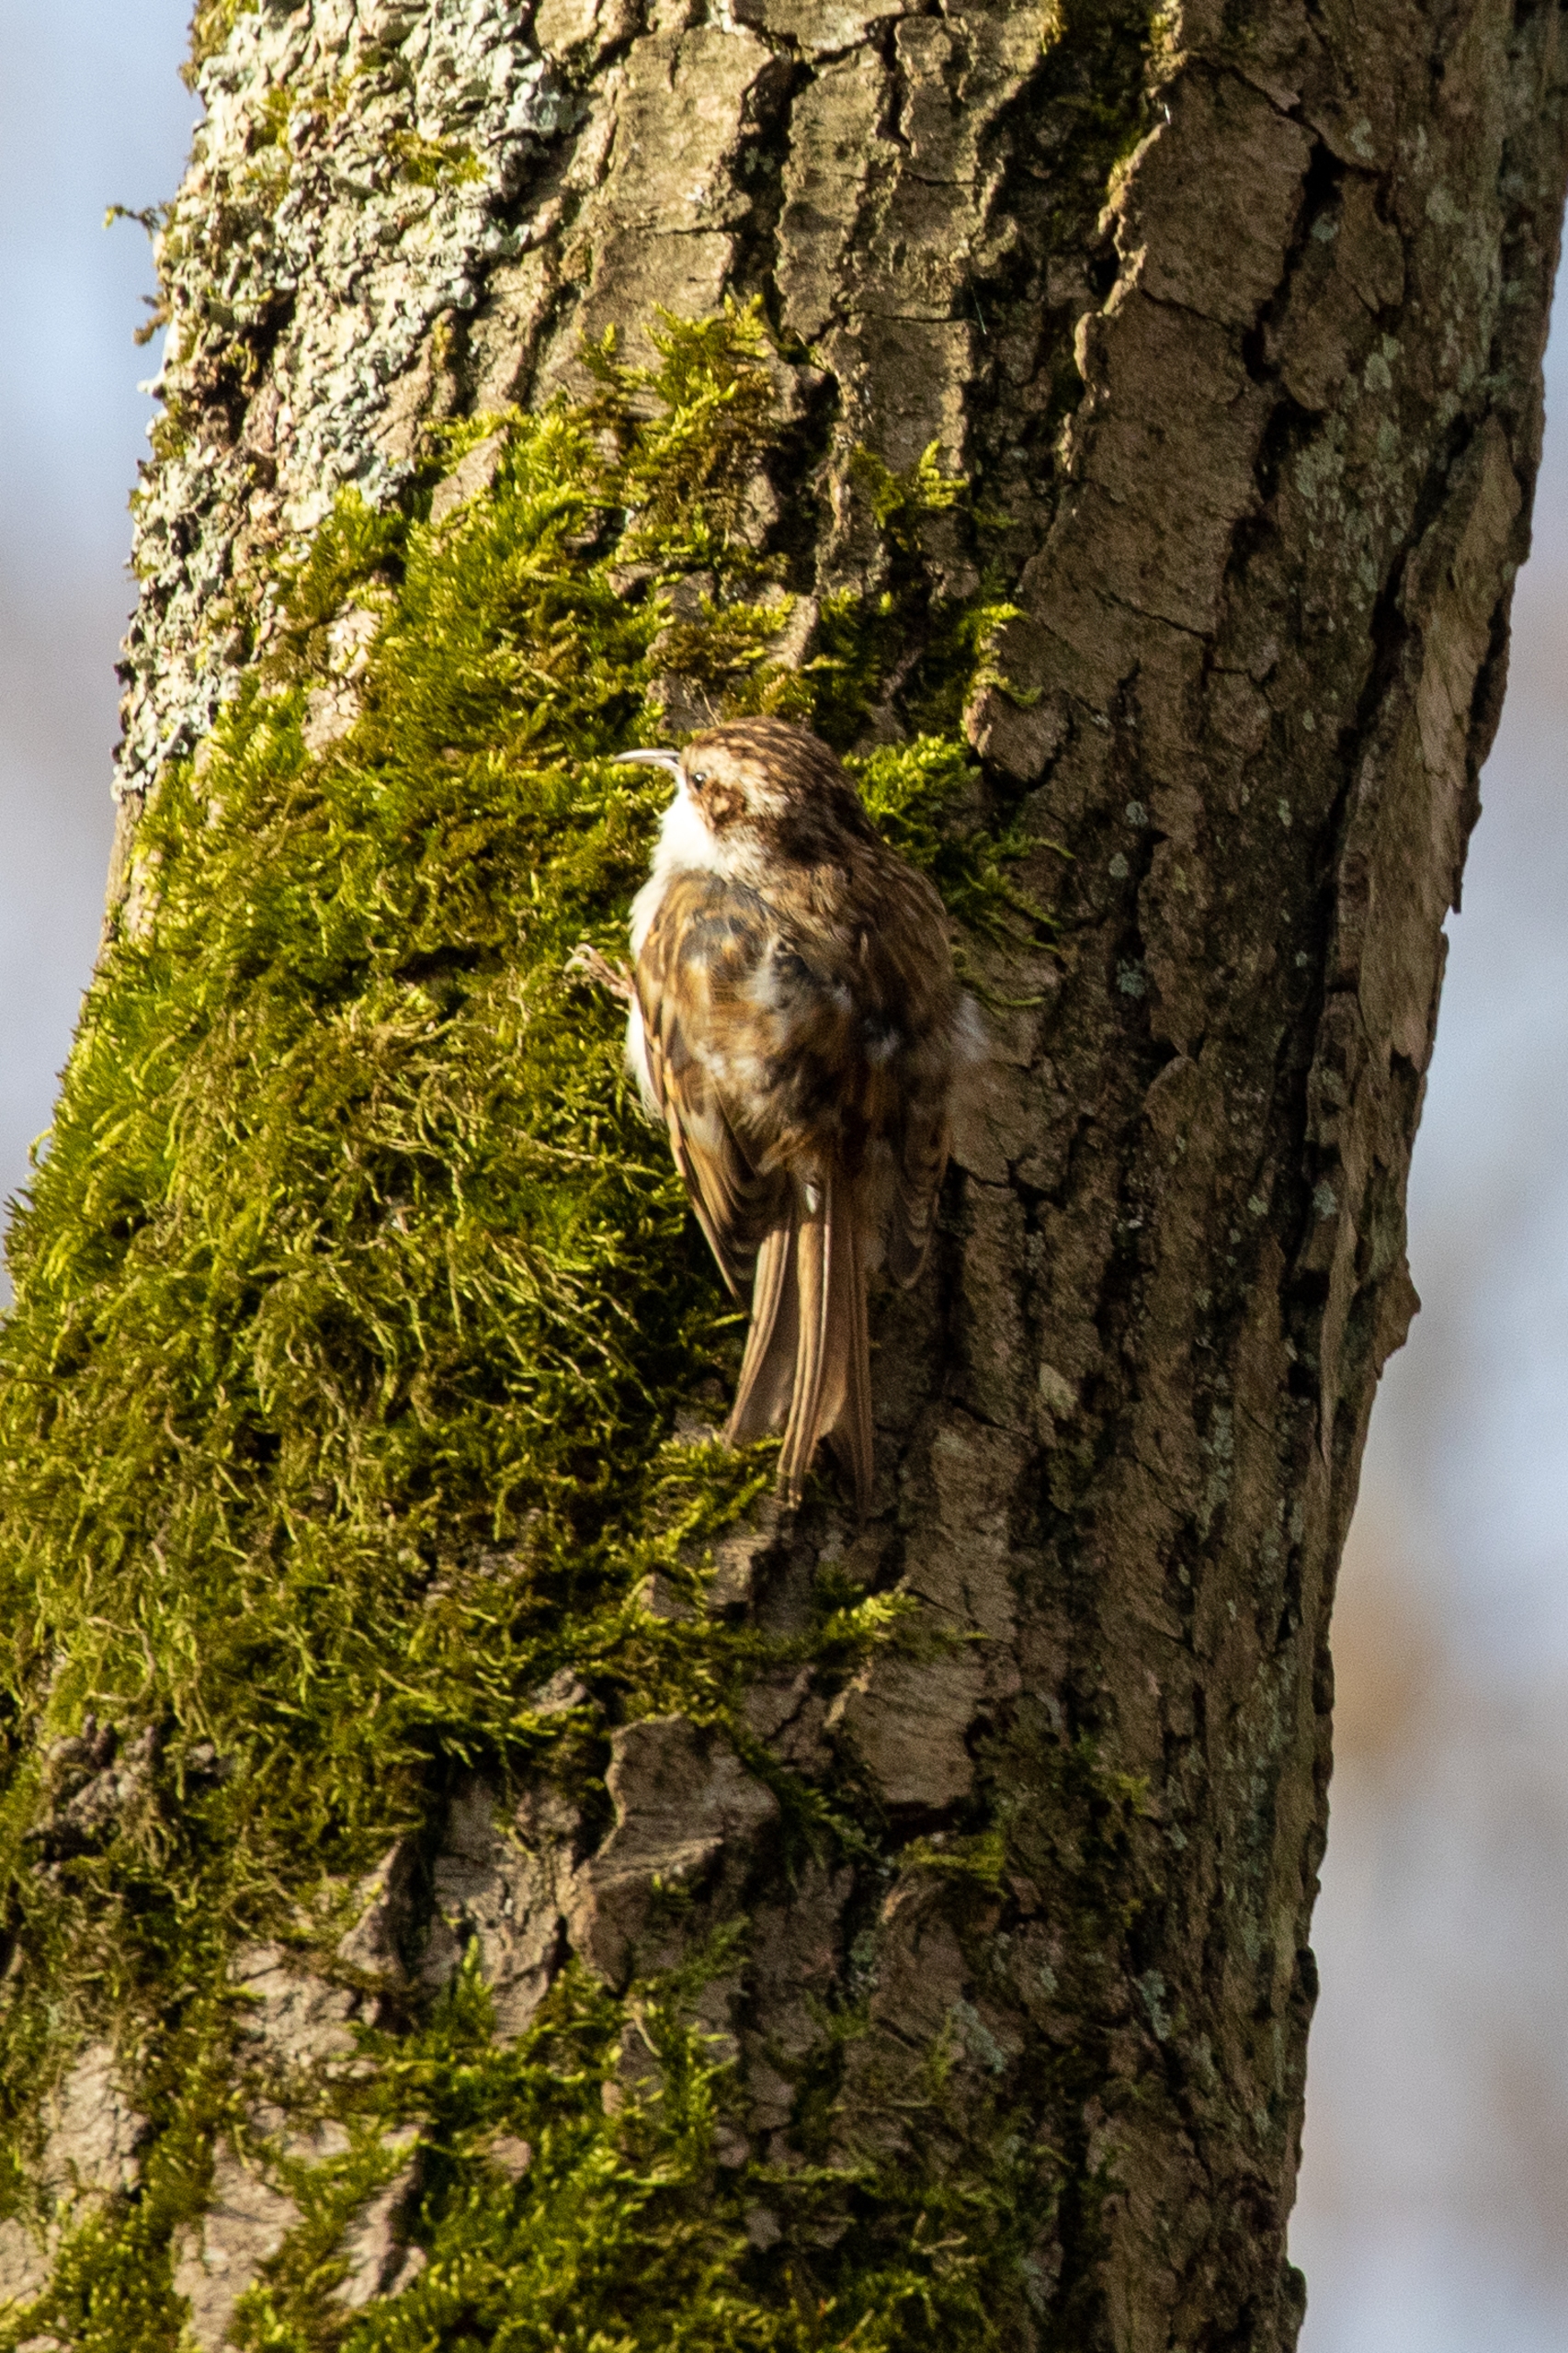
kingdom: Animalia
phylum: Chordata
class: Aves
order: Passeriformes
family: Certhiidae
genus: Certhia
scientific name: Certhia familiaris
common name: Træløber
